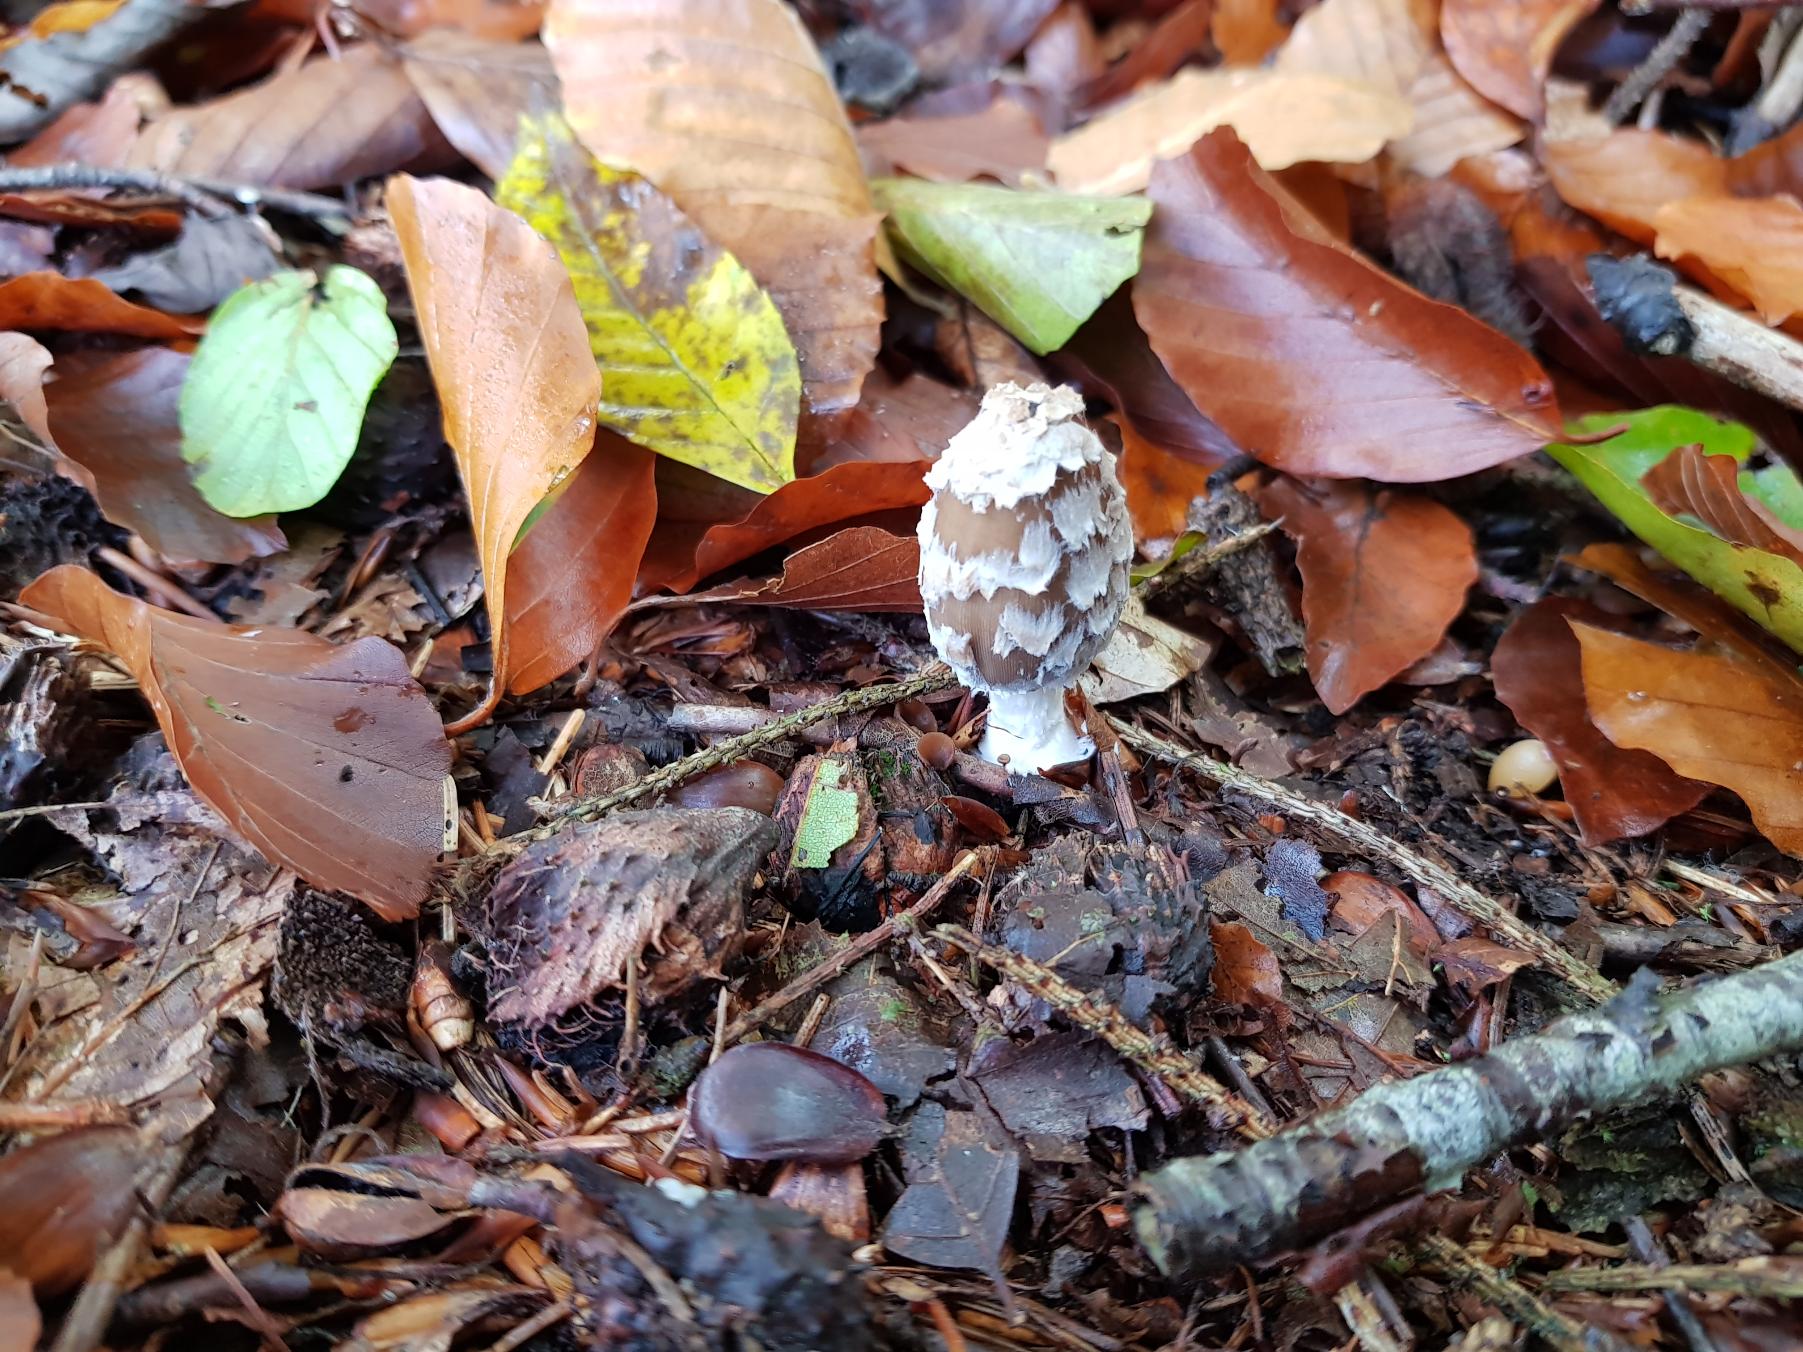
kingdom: Fungi
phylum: Basidiomycota
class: Agaricomycetes
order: Agaricales
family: Psathyrellaceae
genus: Coprinopsis
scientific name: Coprinopsis picacea
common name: Skade-blækhat
